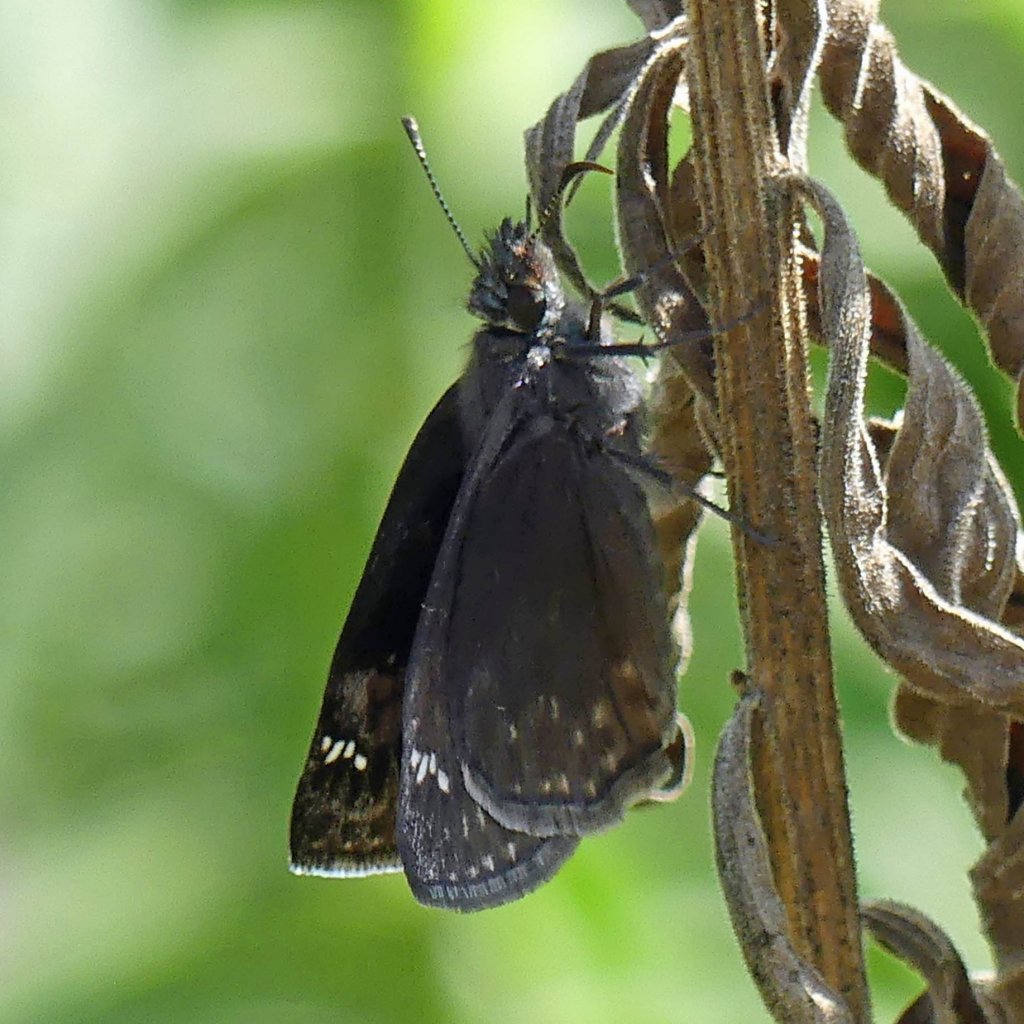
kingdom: Animalia
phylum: Arthropoda
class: Insecta
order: Lepidoptera
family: Hesperiidae
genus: Gesta
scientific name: Gesta
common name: Wild Indigo Duskywing
